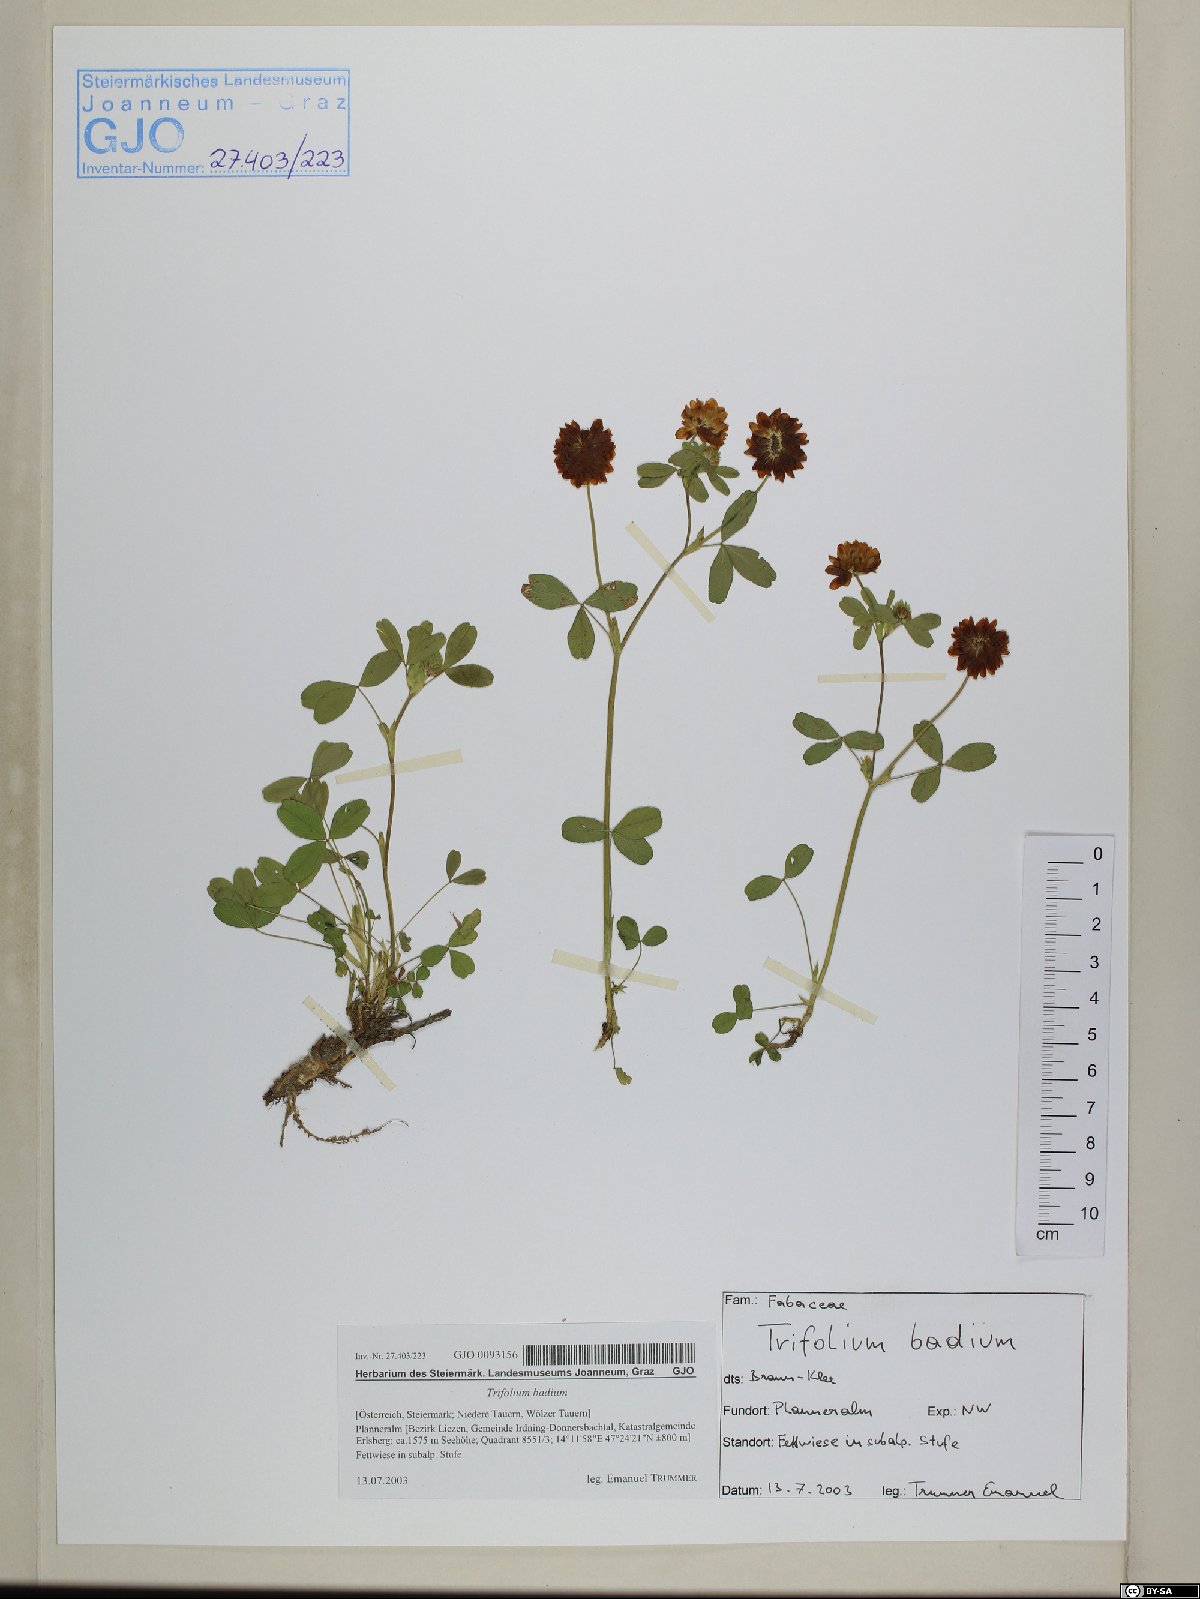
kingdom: Plantae
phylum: Tracheophyta
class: Magnoliopsida
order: Fabales
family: Fabaceae
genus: Trifolium
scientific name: Trifolium badium
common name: Brown clover
